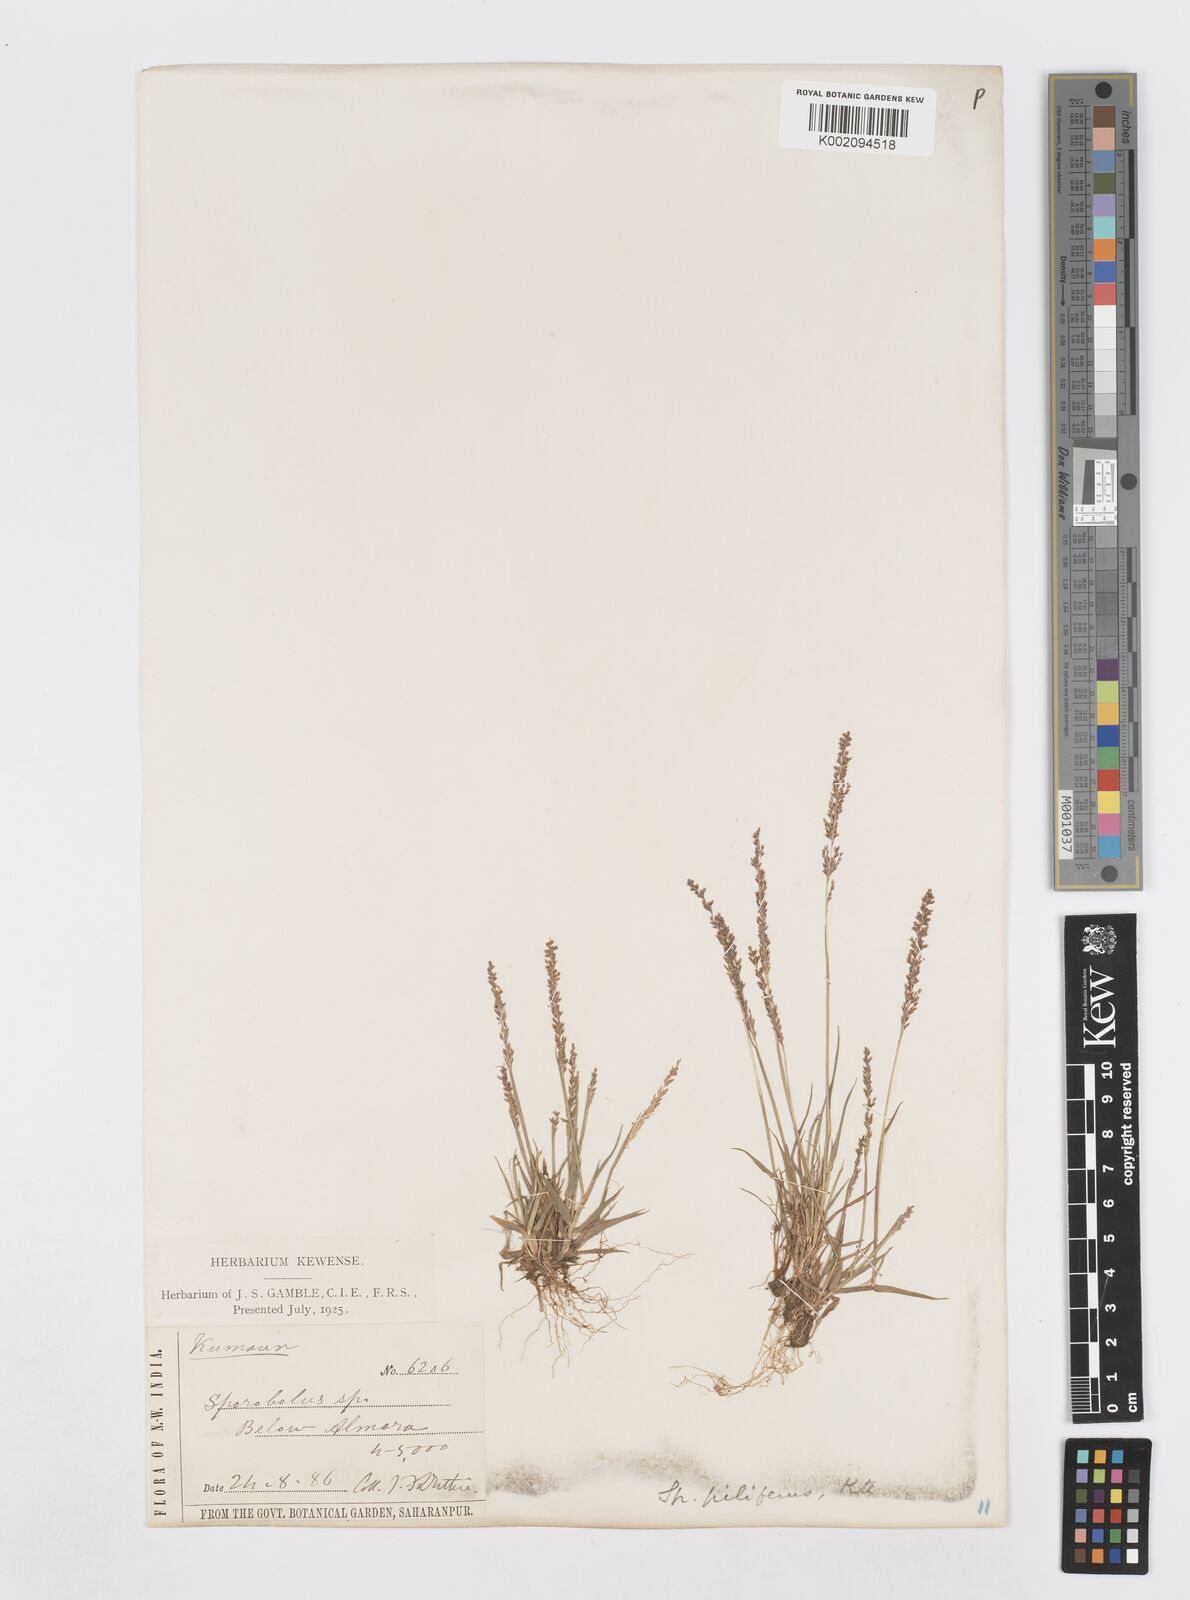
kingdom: Plantae
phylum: Tracheophyta
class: Liliopsida
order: Poales
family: Poaceae
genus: Sporobolus
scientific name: Sporobolus pilifer
